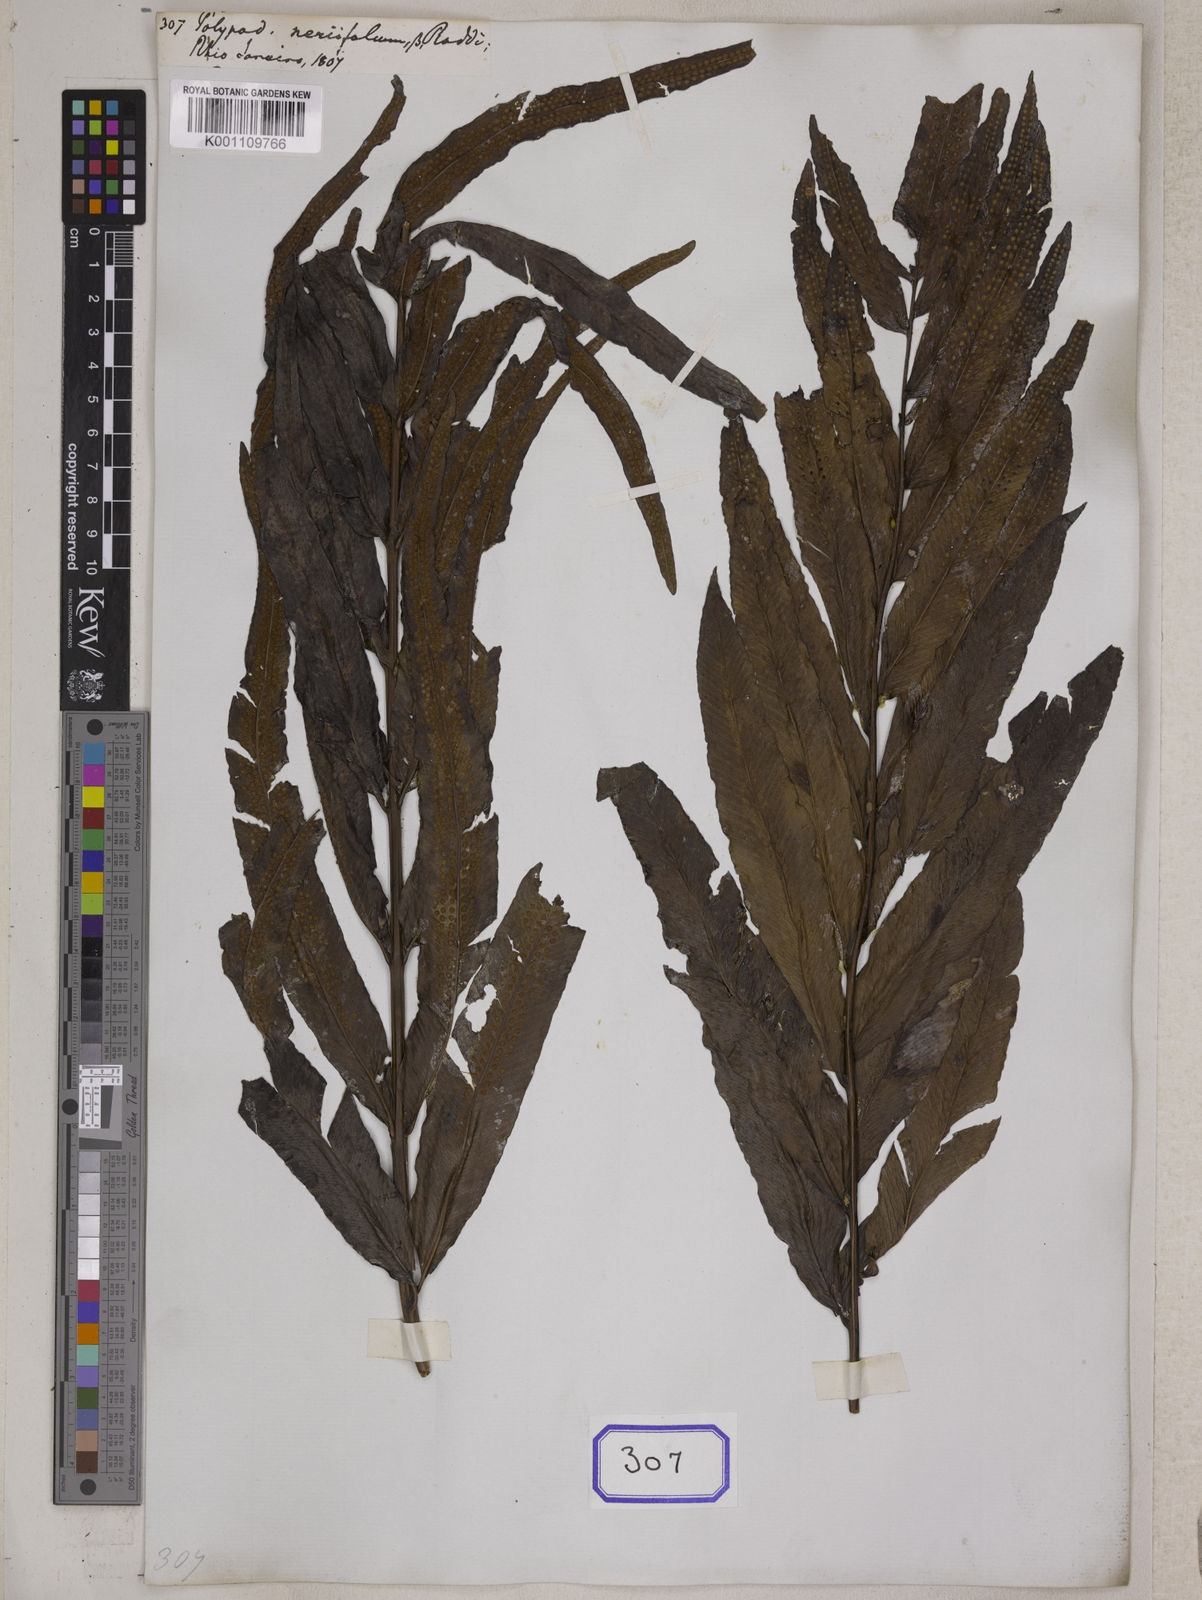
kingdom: Plantae
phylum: Tracheophyta
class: Polypodiopsida
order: Polypodiales
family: Polypodiaceae
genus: Polypodium
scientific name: Polypodium
